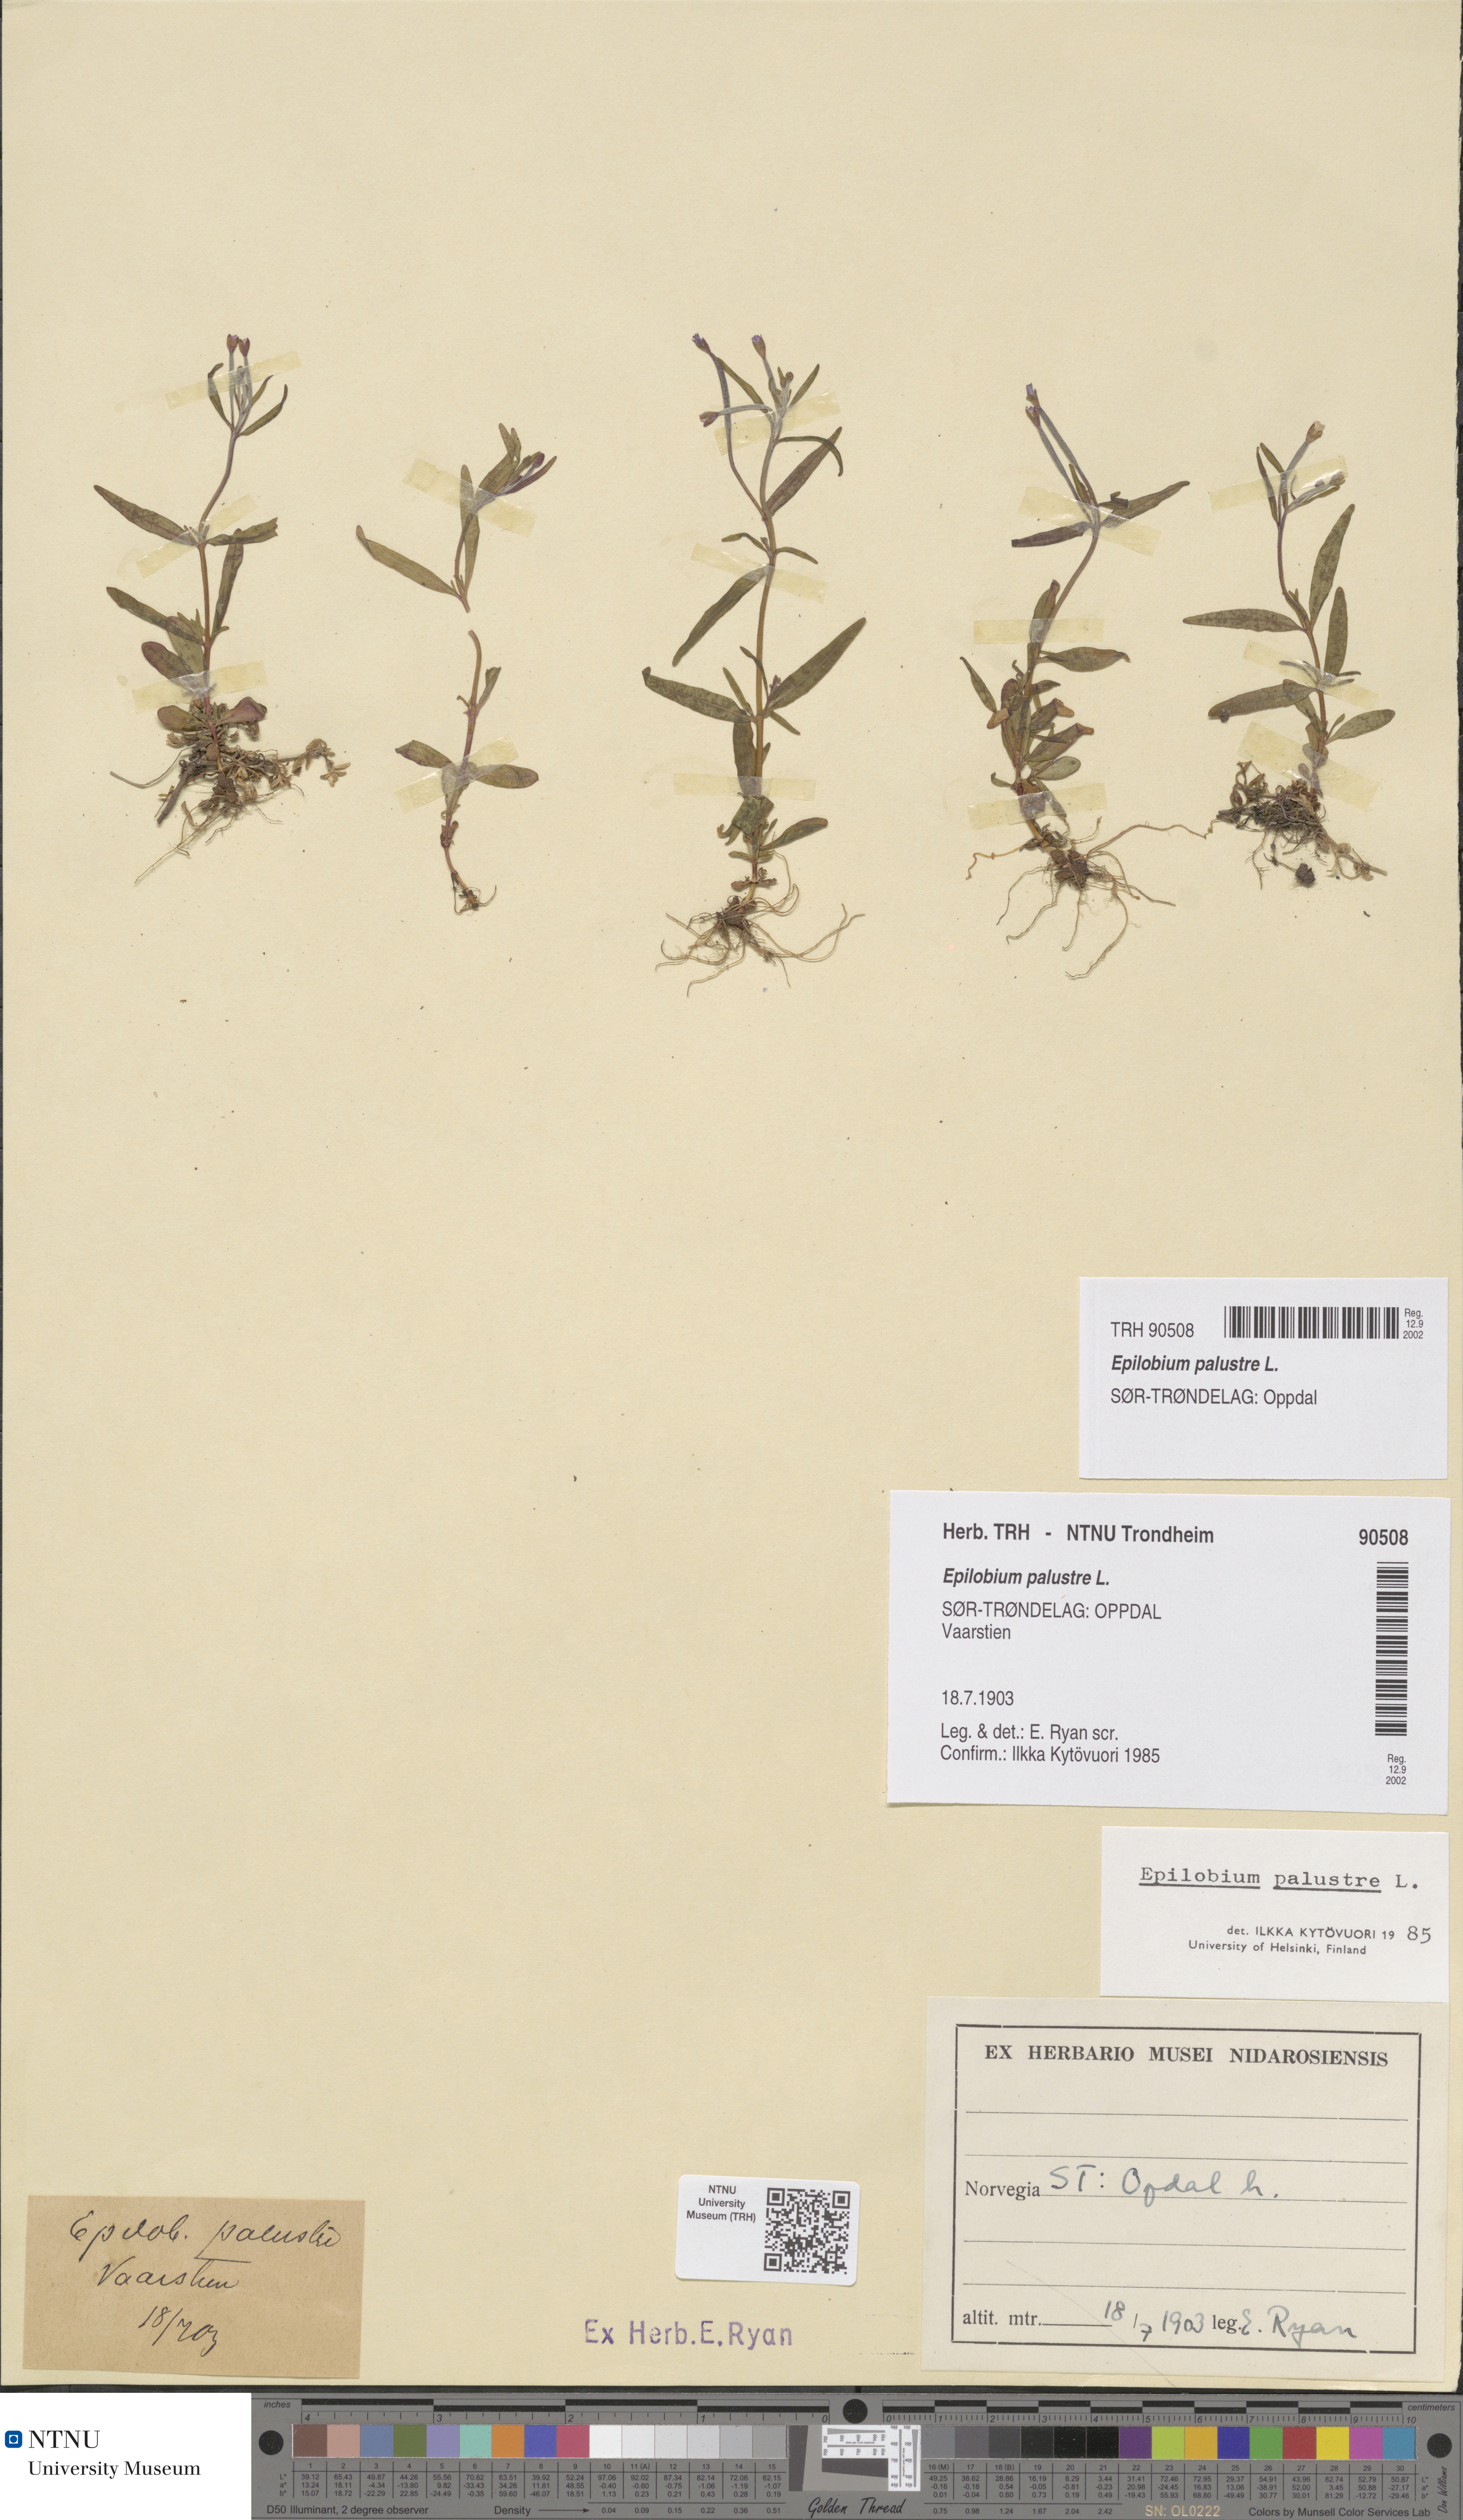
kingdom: Plantae
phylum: Tracheophyta
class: Magnoliopsida
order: Myrtales
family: Onagraceae
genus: Epilobium
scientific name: Epilobium palustre
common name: Marsh willowherb
